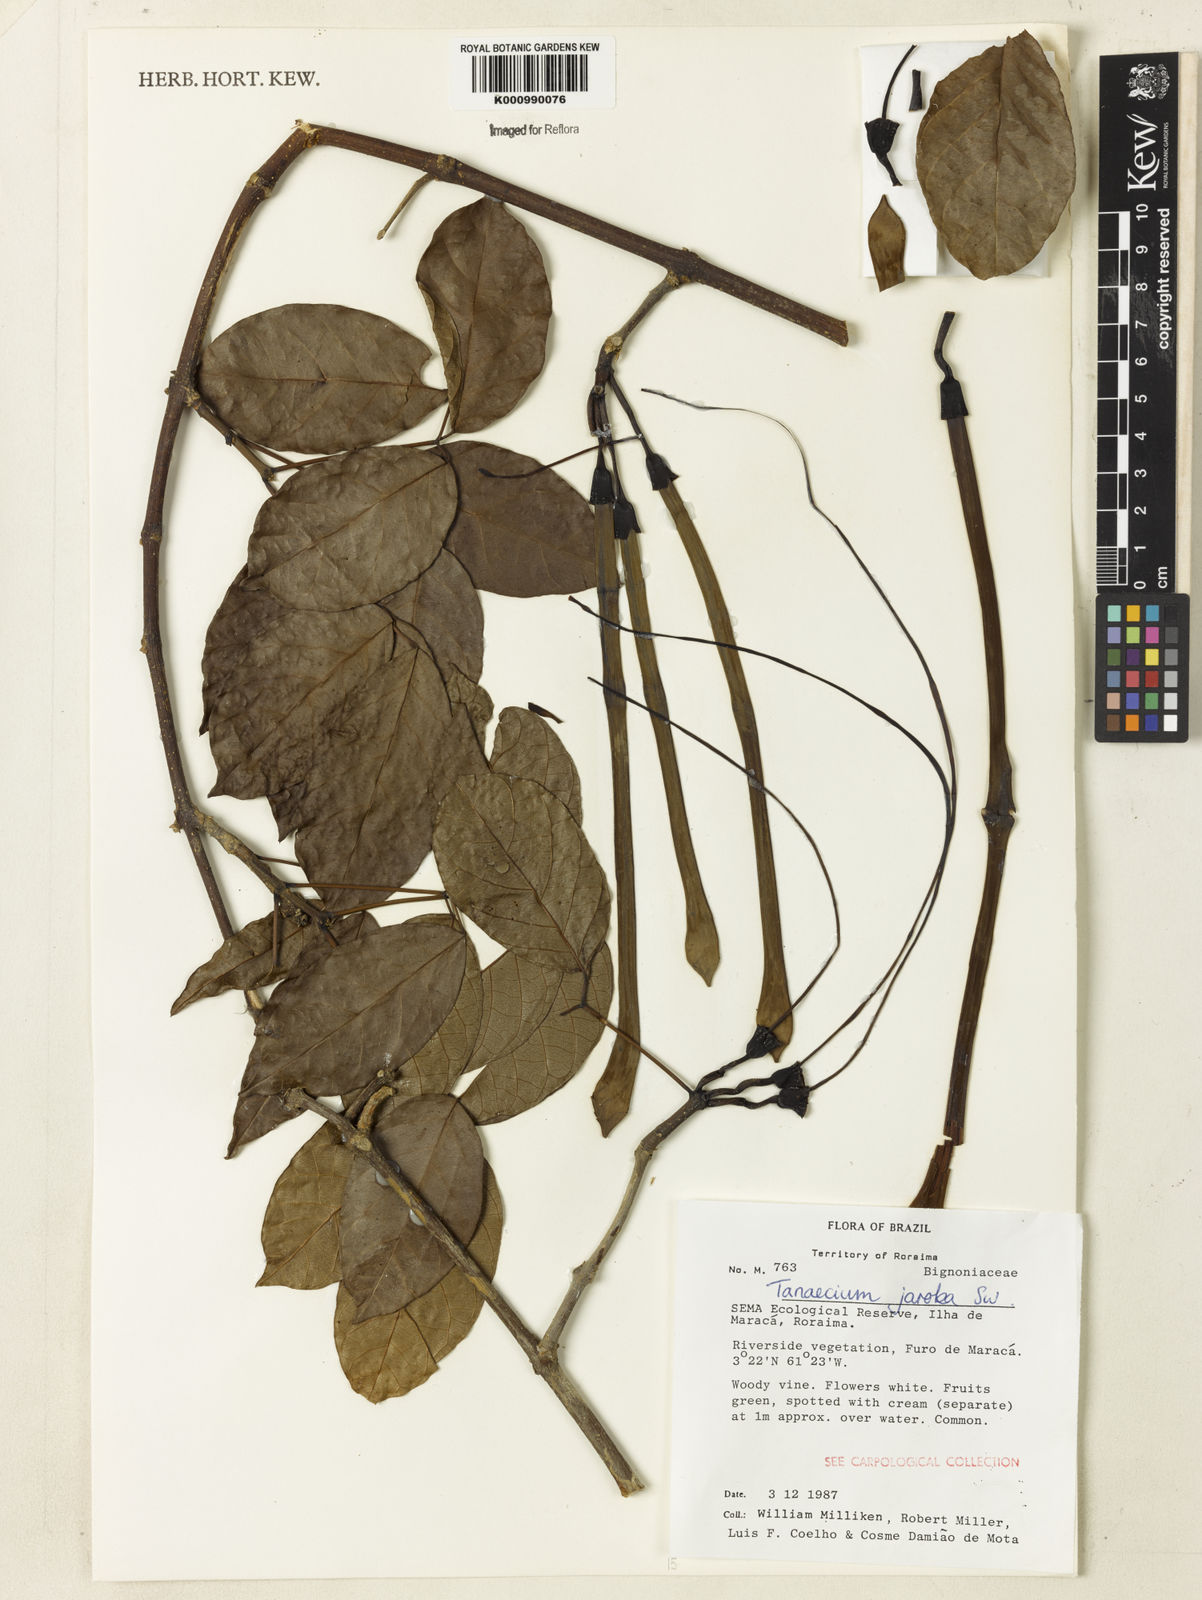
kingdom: Plantae
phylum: Tracheophyta
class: Magnoliopsida
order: Lamiales
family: Bignoniaceae
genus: Tanaecium
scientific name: Tanaecium jaroba
